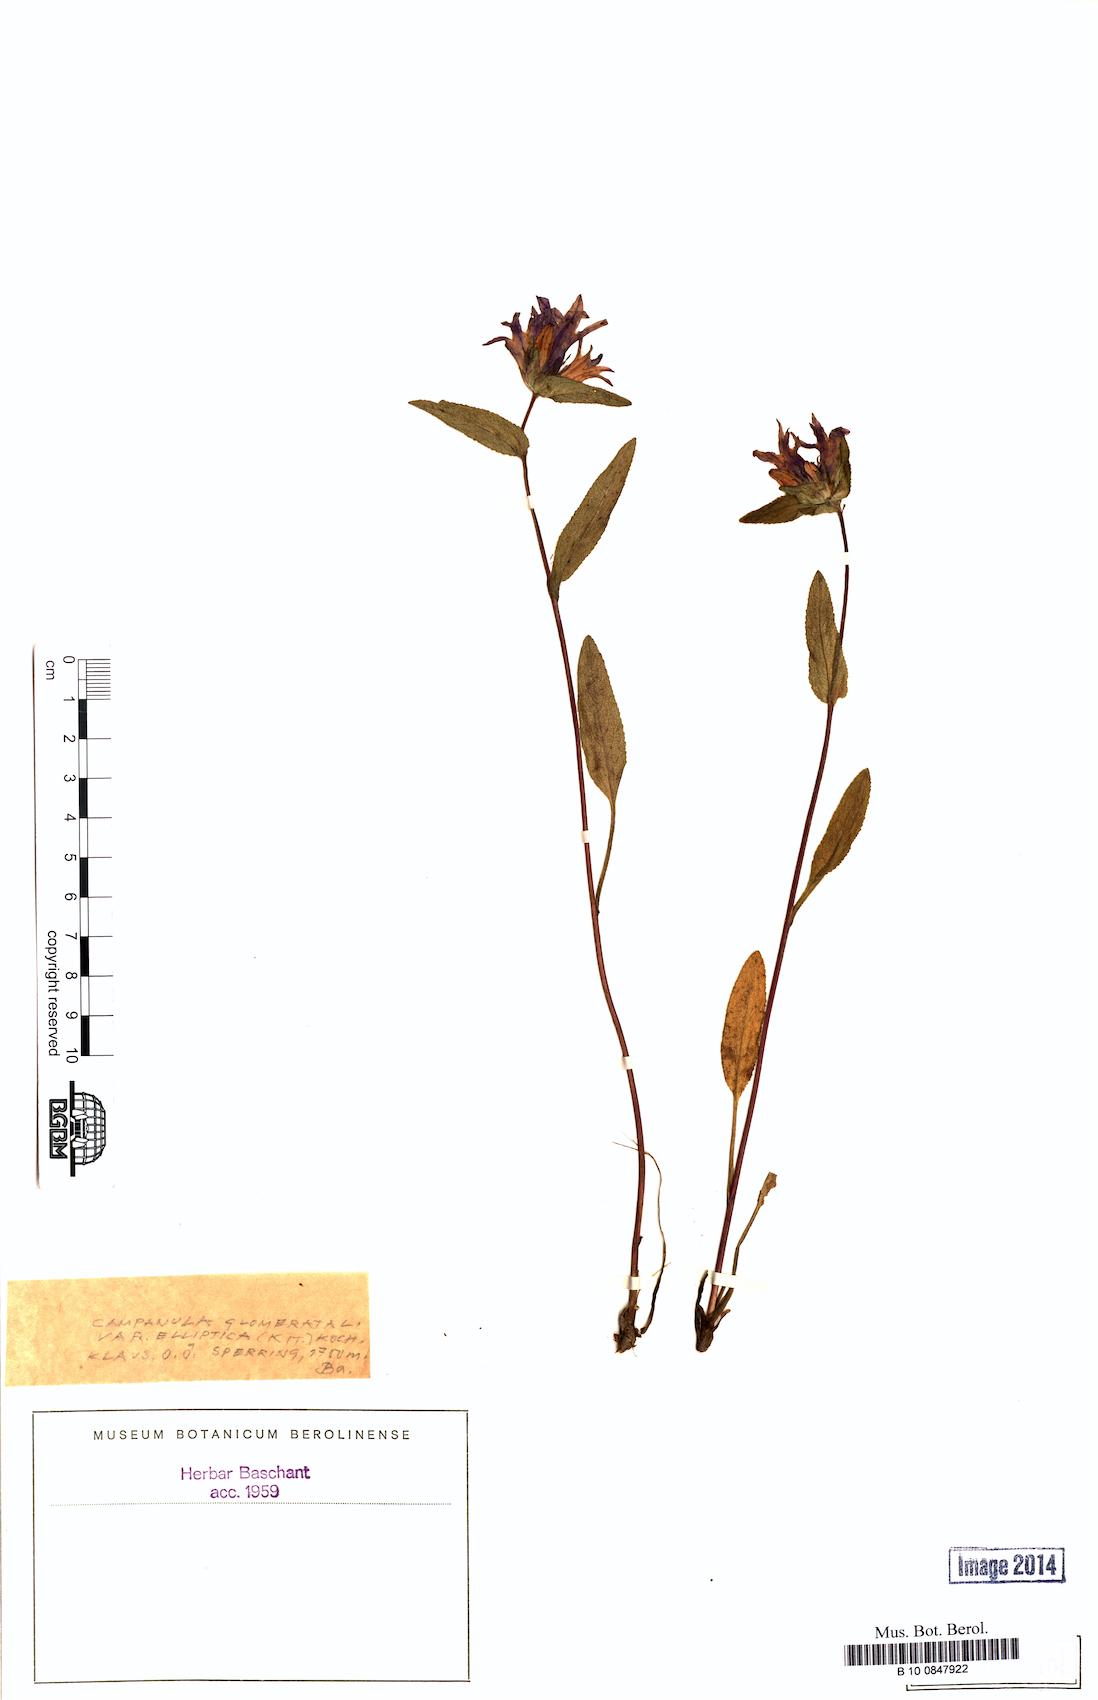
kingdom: Plantae
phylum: Tracheophyta
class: Magnoliopsida
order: Asterales
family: Campanulaceae
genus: Campanula
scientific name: Campanula glomerata
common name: Clustered bellflower
